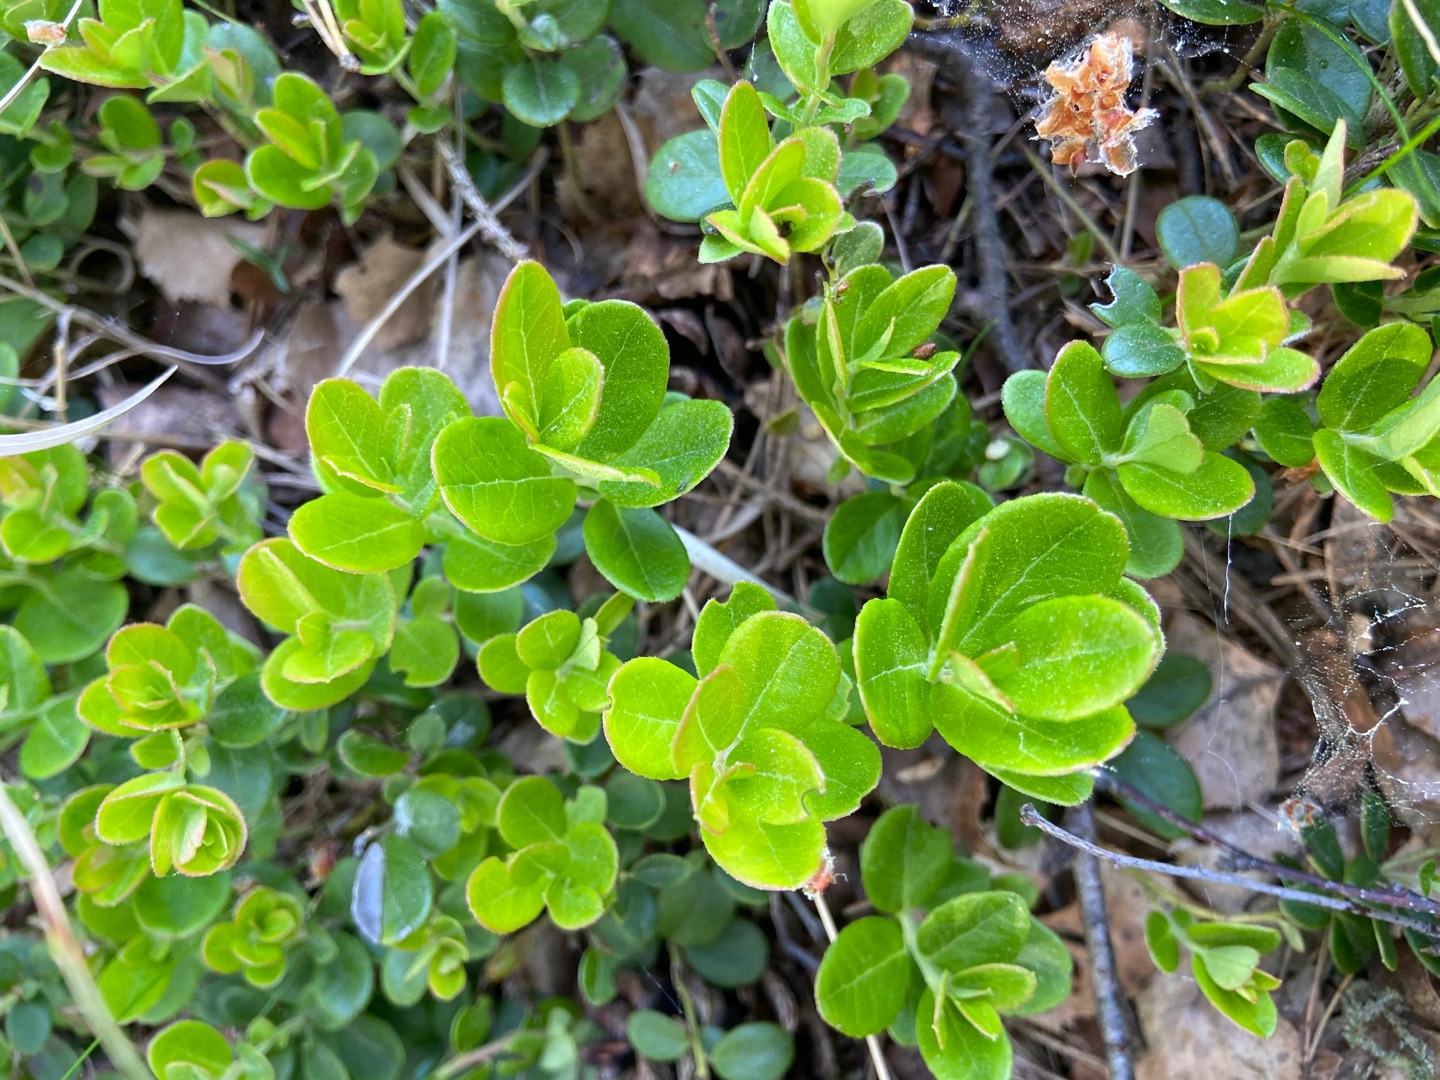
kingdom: Plantae
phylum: Tracheophyta
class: Magnoliopsida
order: Ericales
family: Ericaceae
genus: Vaccinium
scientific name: Vaccinium vitis-idaea
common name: Tyttebær
